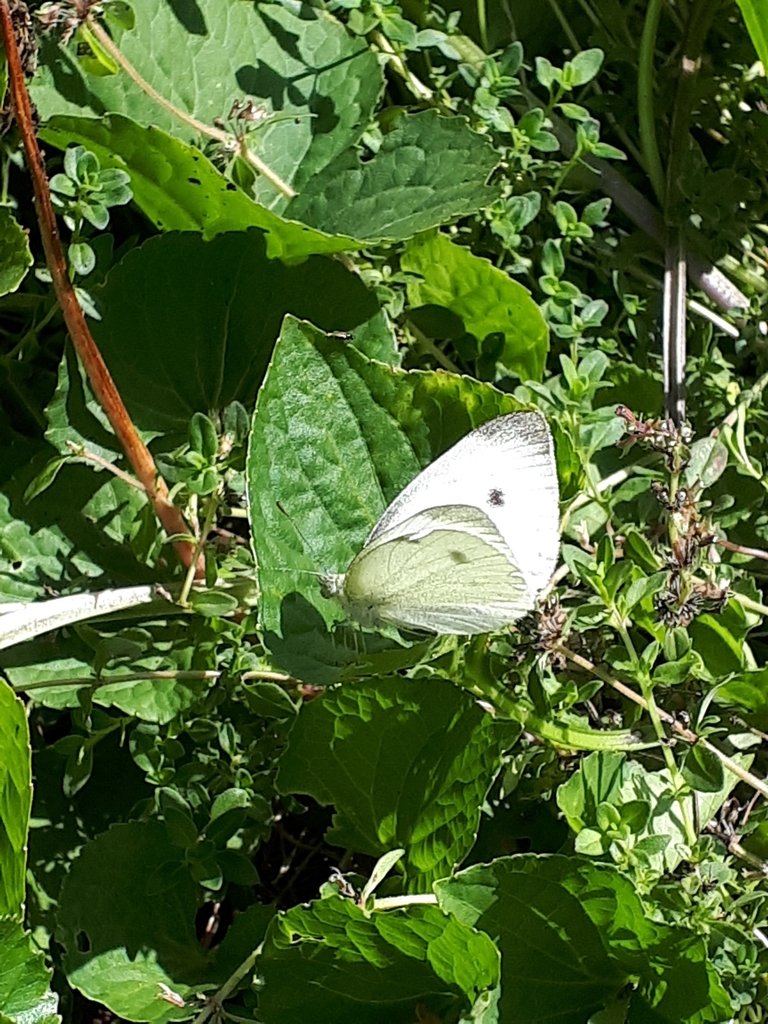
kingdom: Animalia
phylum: Arthropoda
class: Insecta
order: Lepidoptera
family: Pieridae
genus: Pieris
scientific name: Pieris rapae
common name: Cabbage White
